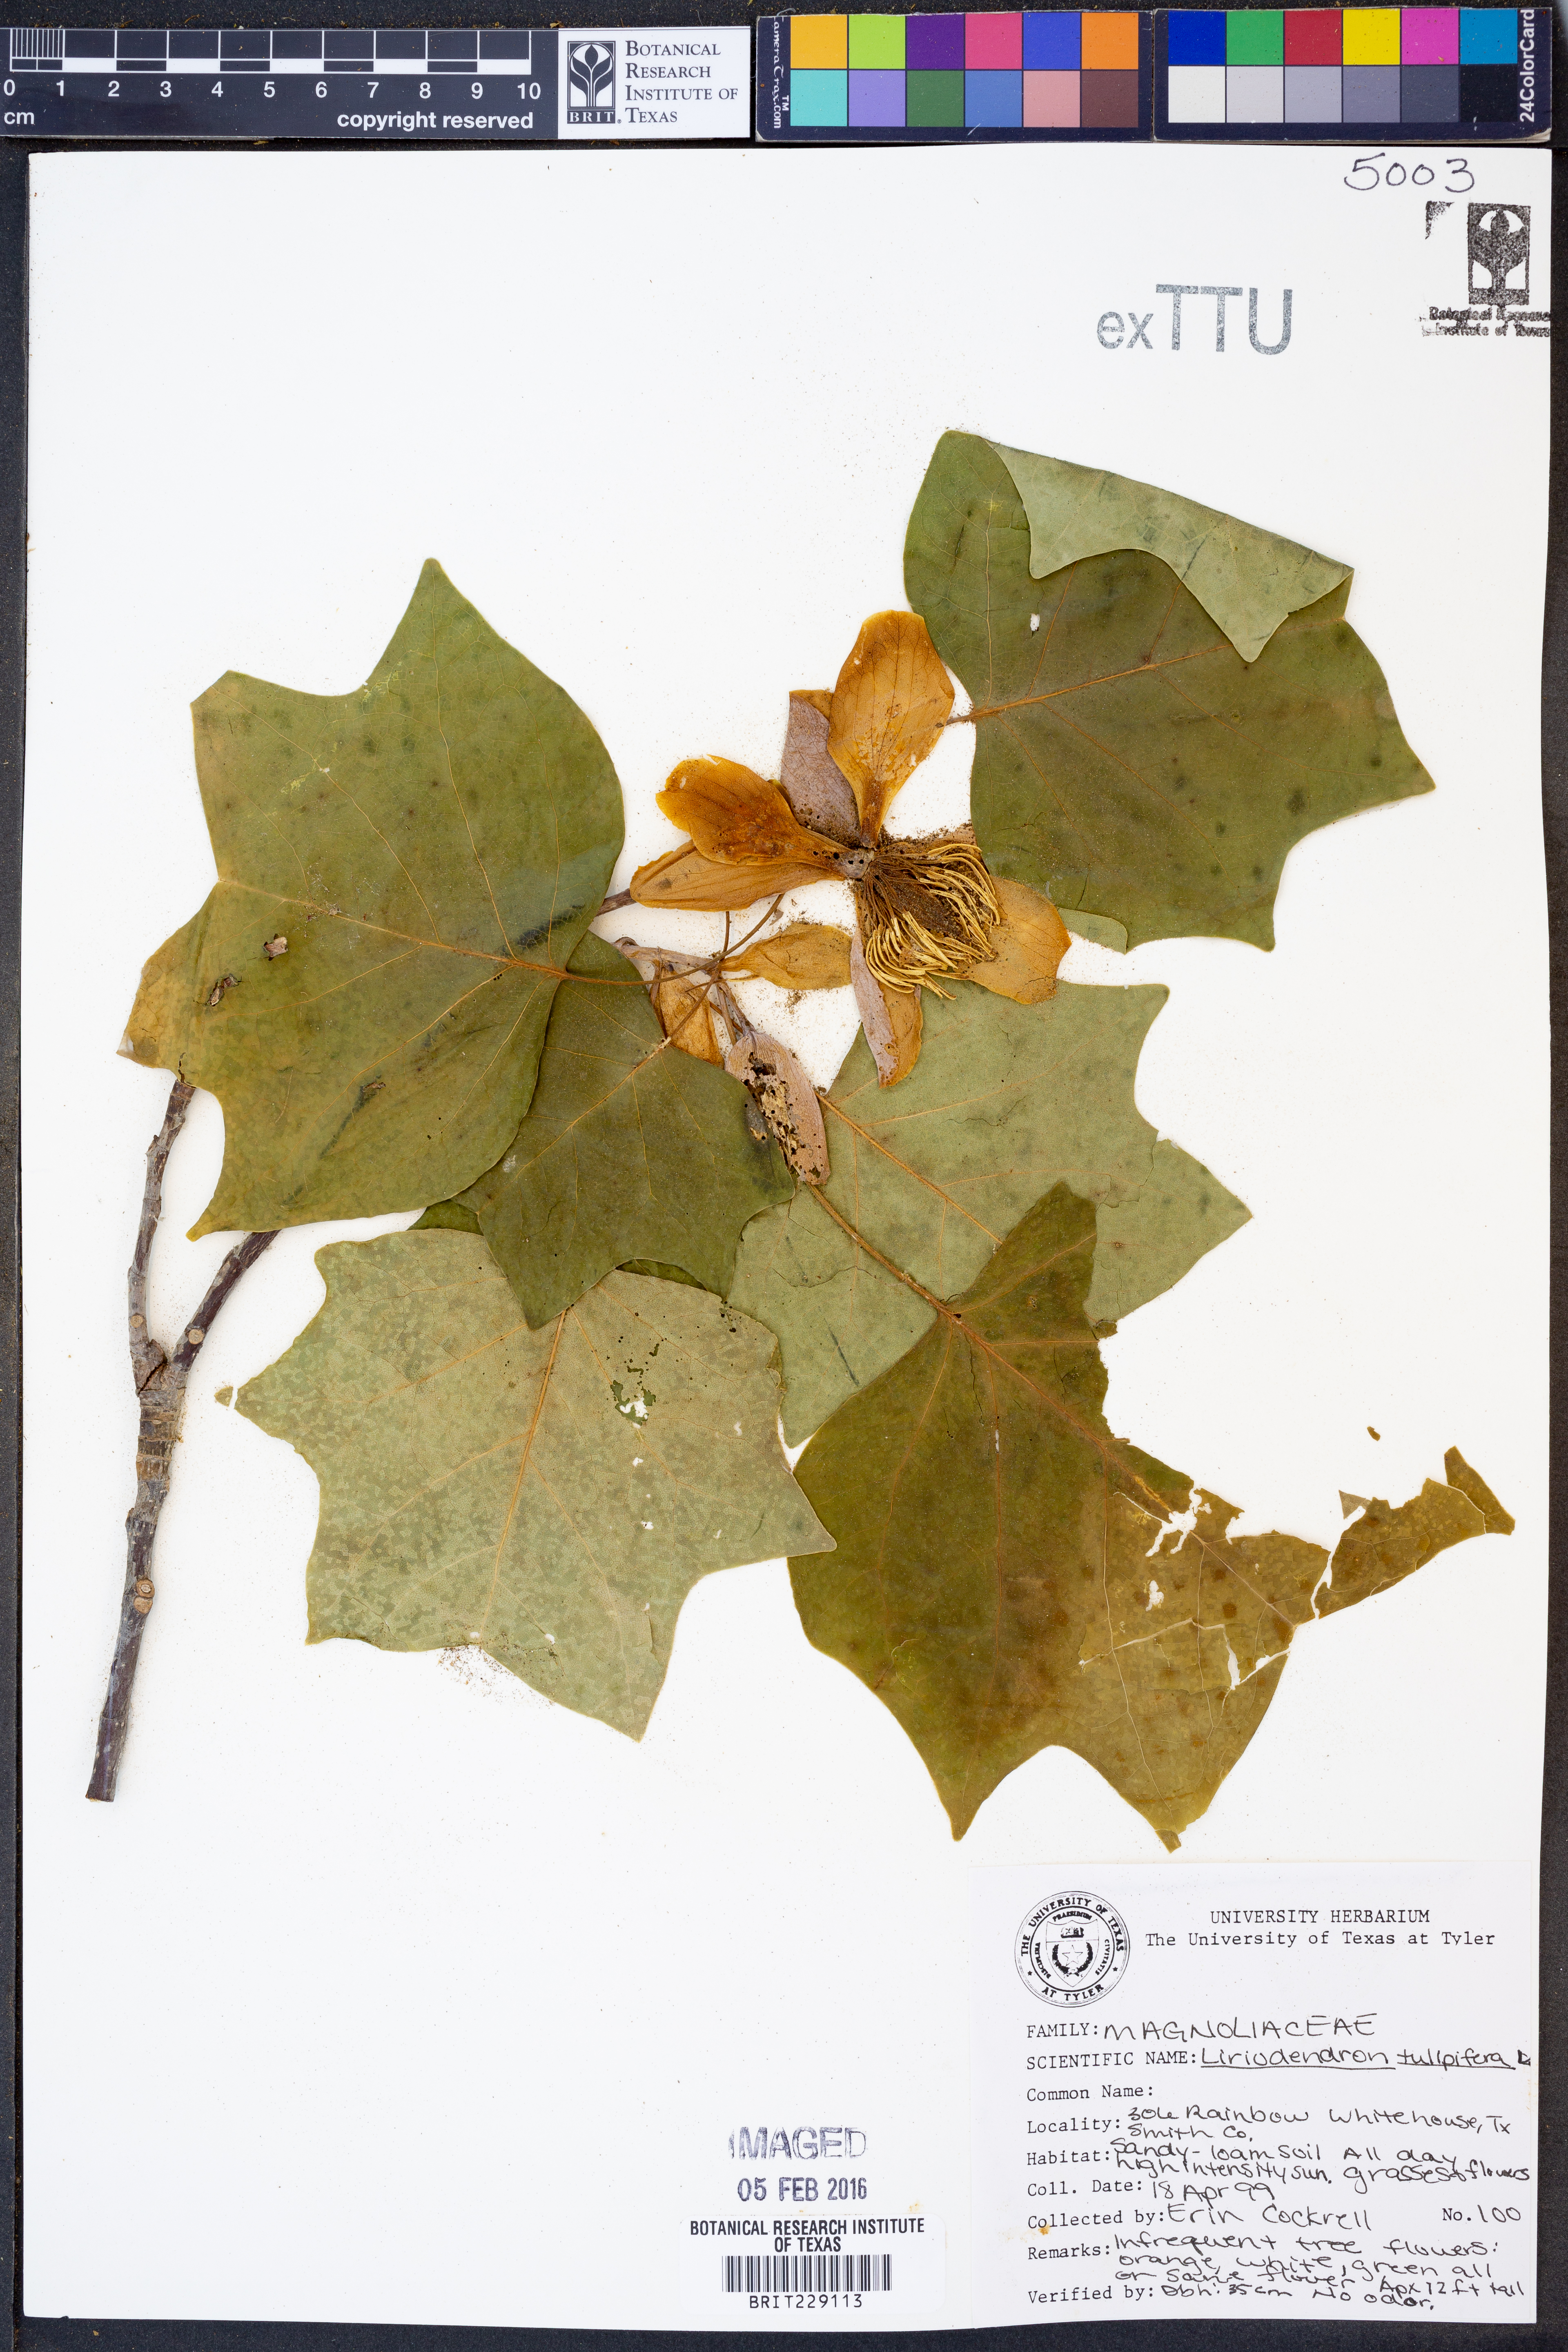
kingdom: Plantae
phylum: Tracheophyta
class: Magnoliopsida
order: Magnoliales
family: Magnoliaceae
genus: Liriodendron
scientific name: Liriodendron tulipifera
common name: Tulip tree
